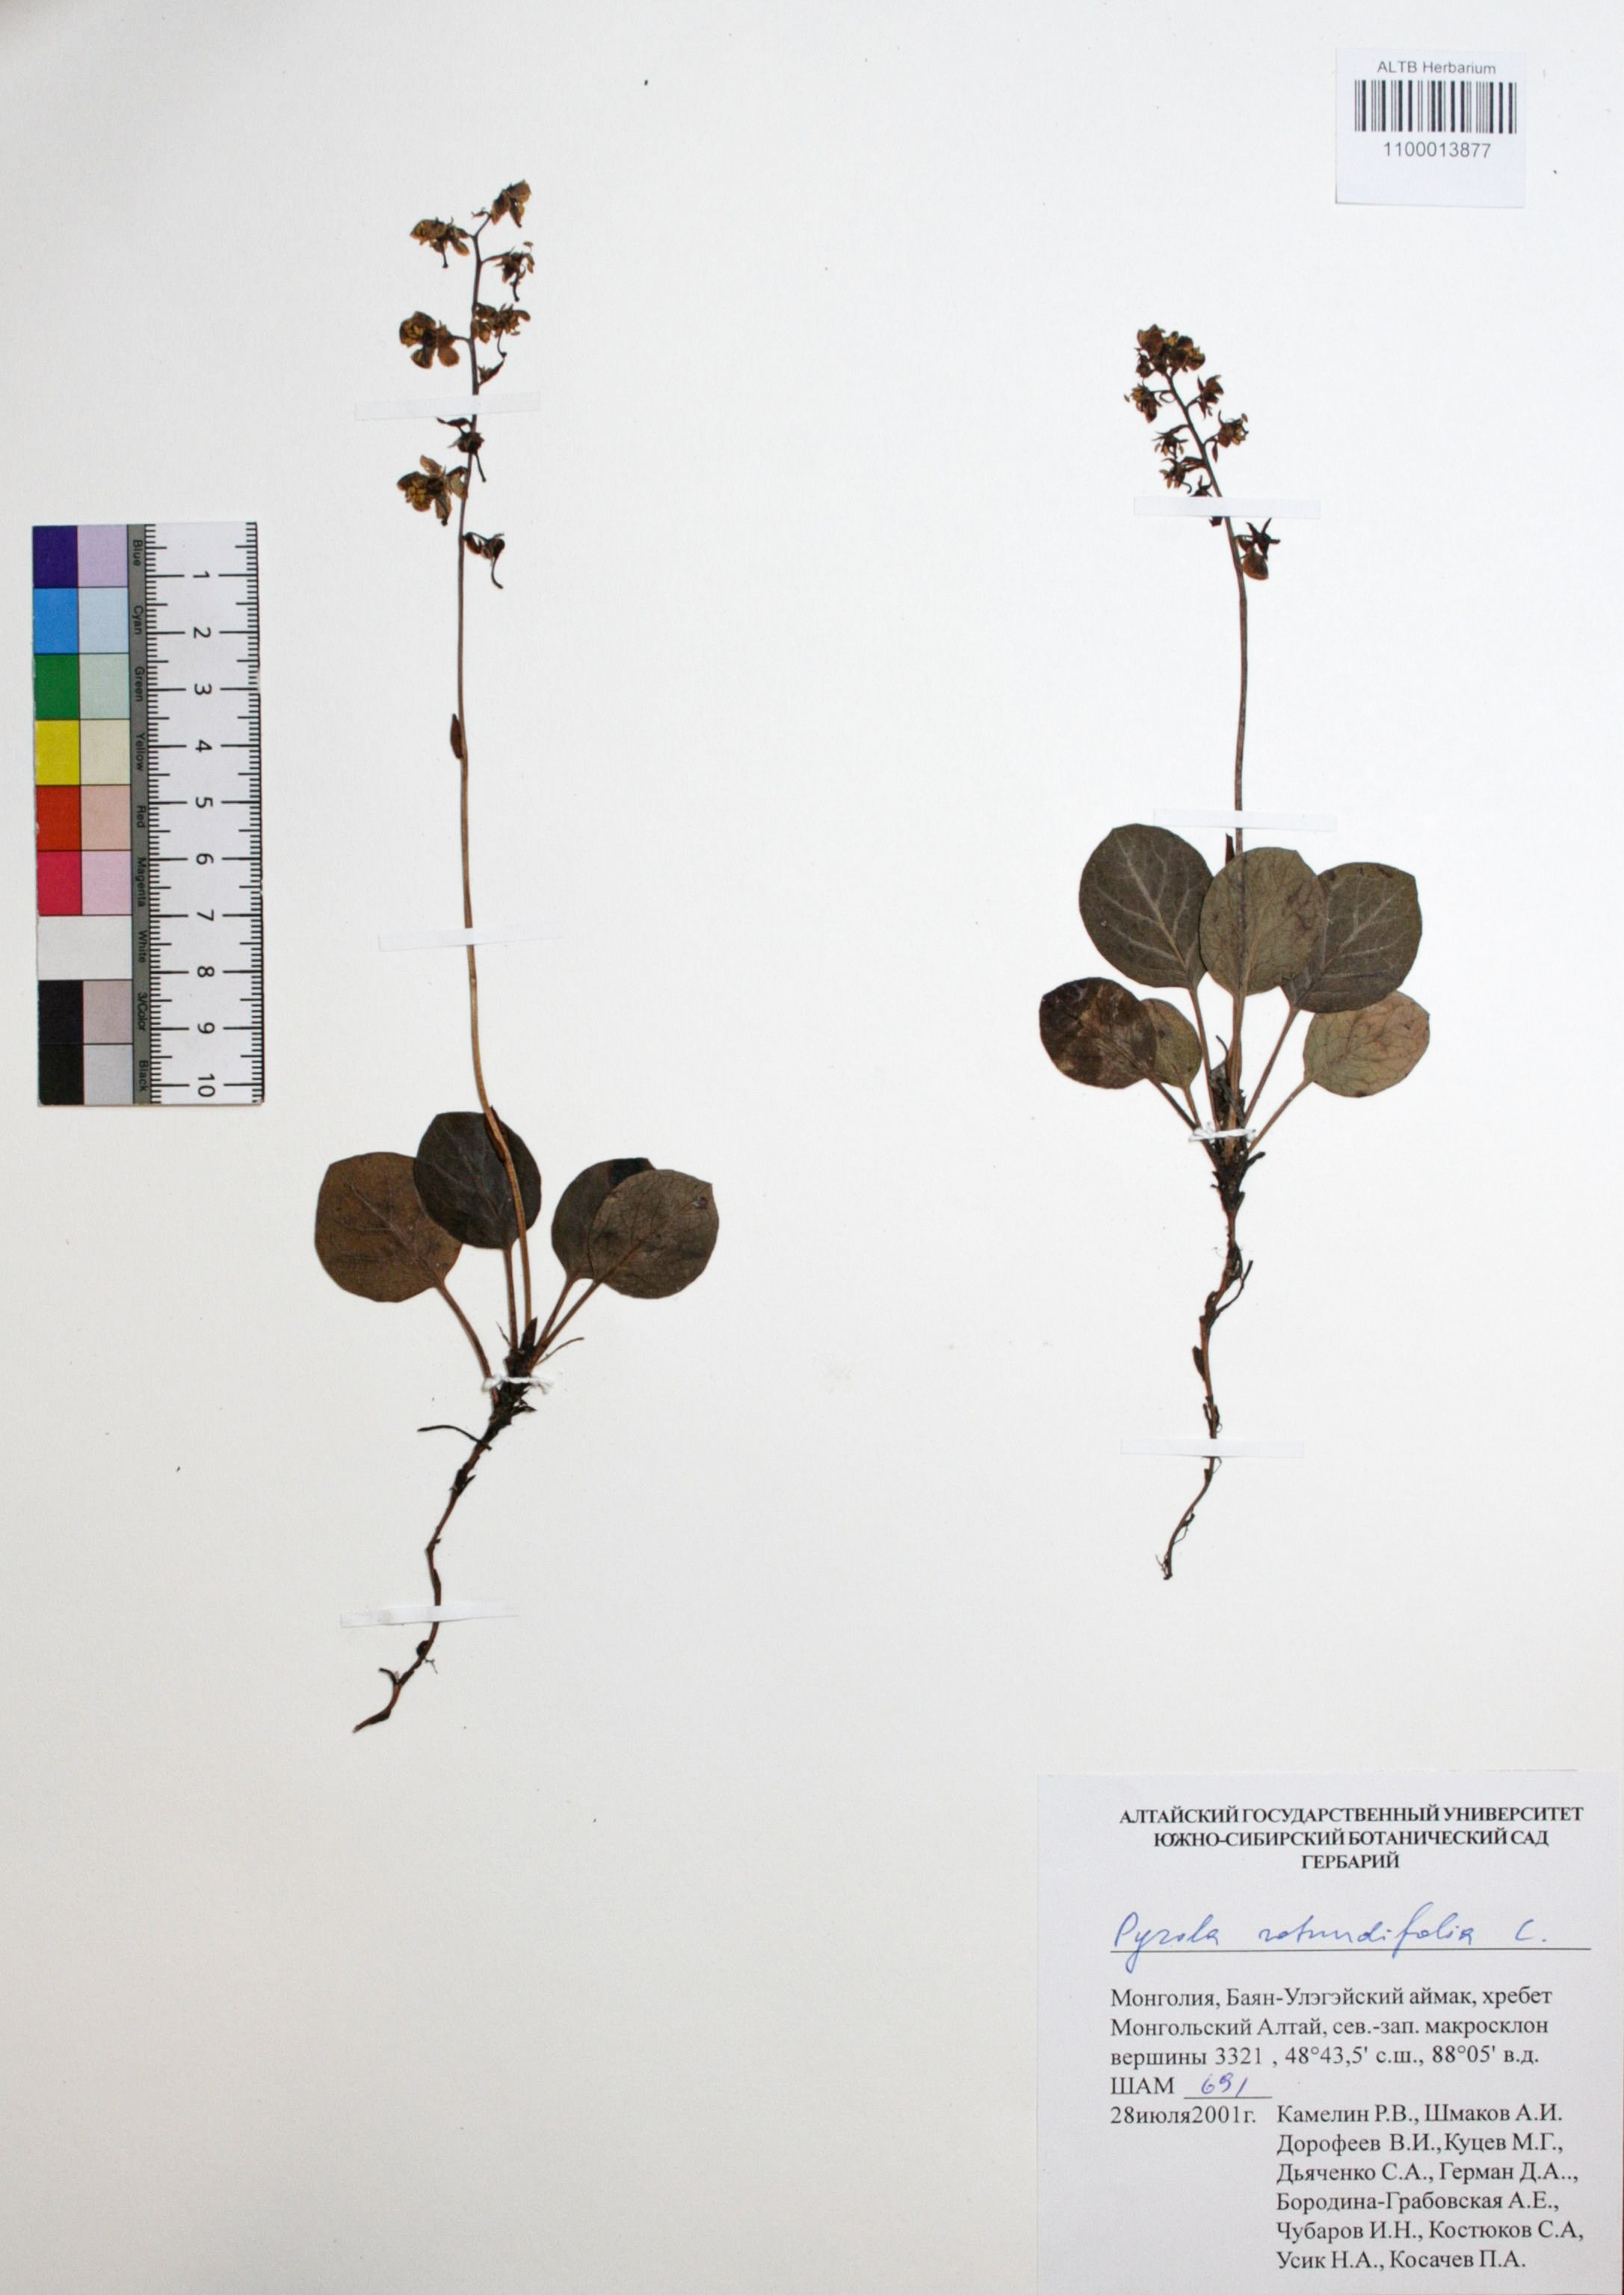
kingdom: Plantae
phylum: Tracheophyta
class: Magnoliopsida
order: Ericales
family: Ericaceae
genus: Pyrola
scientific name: Pyrola rotundifolia
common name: Round-leaved wintergreen
